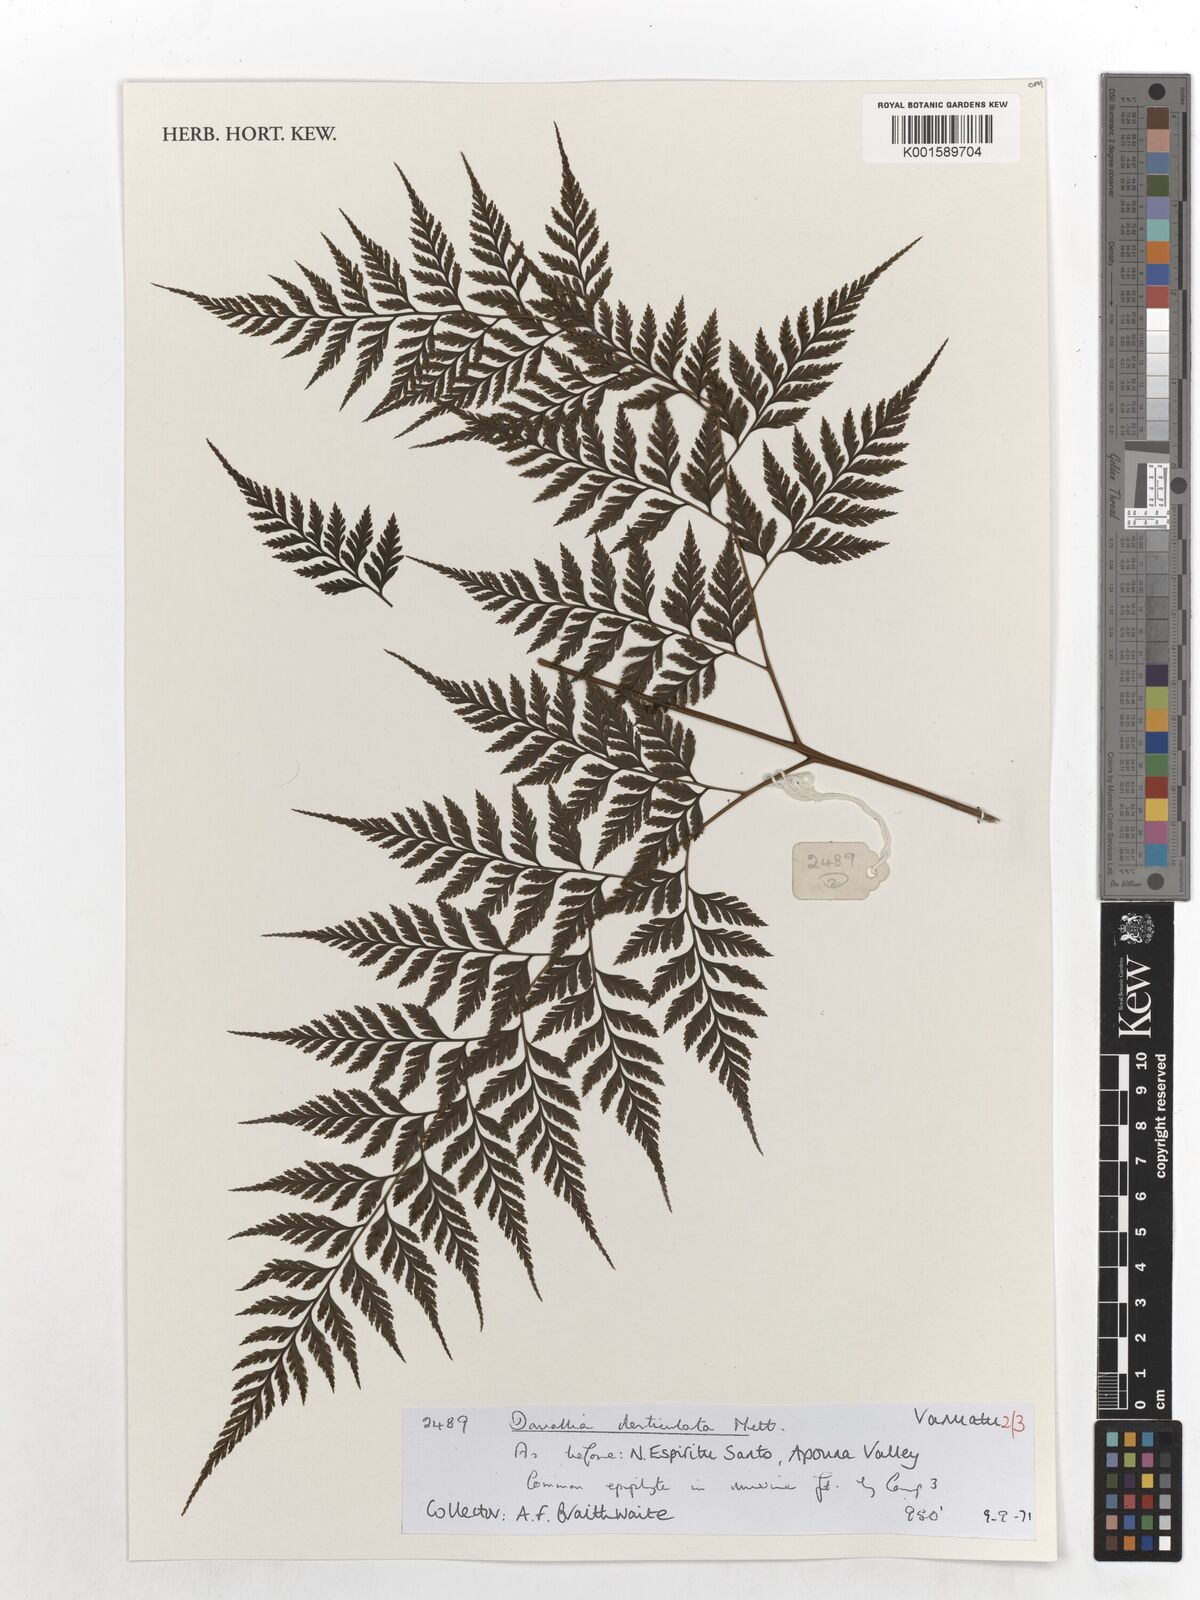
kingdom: Plantae
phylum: Tracheophyta
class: Polypodiopsida
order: Polypodiales
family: Davalliaceae
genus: Davallia
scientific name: Davallia denticulata
